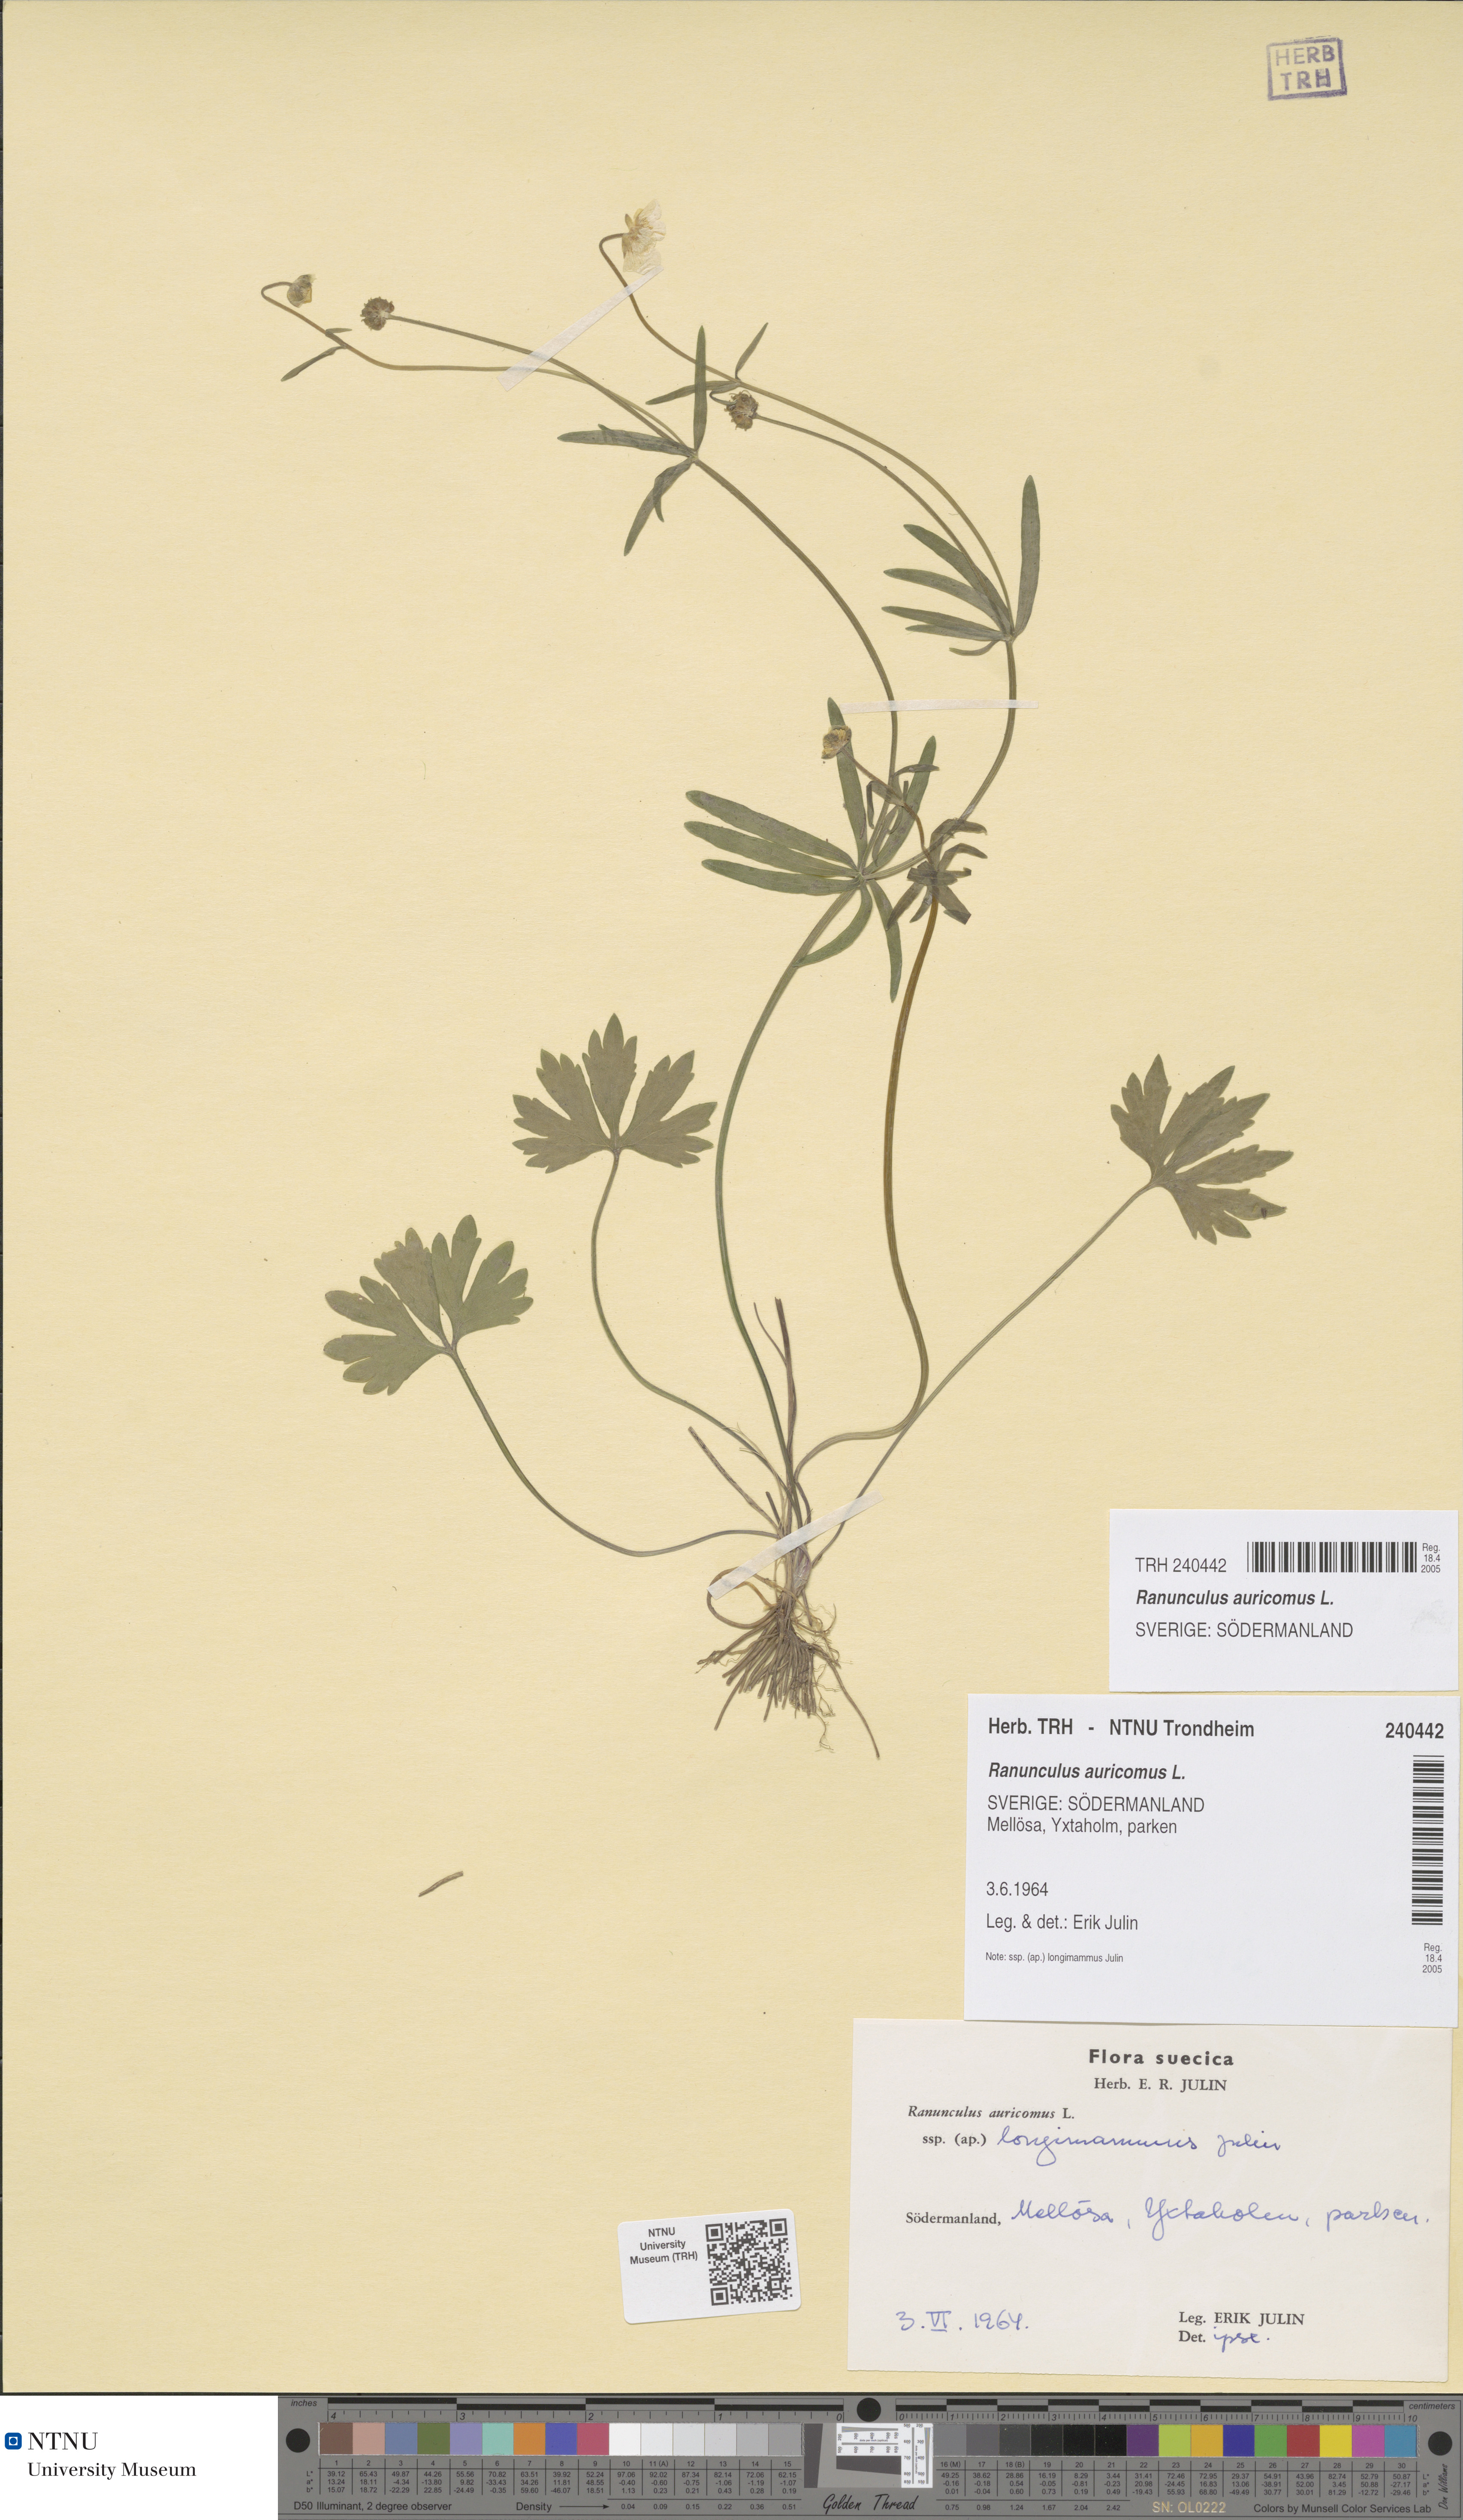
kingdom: Plantae
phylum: Tracheophyta
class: Magnoliopsida
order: Ranunculales
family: Ranunculaceae
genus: Ranunculus
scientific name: Ranunculus auricomus
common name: Goldilocks buttercup
